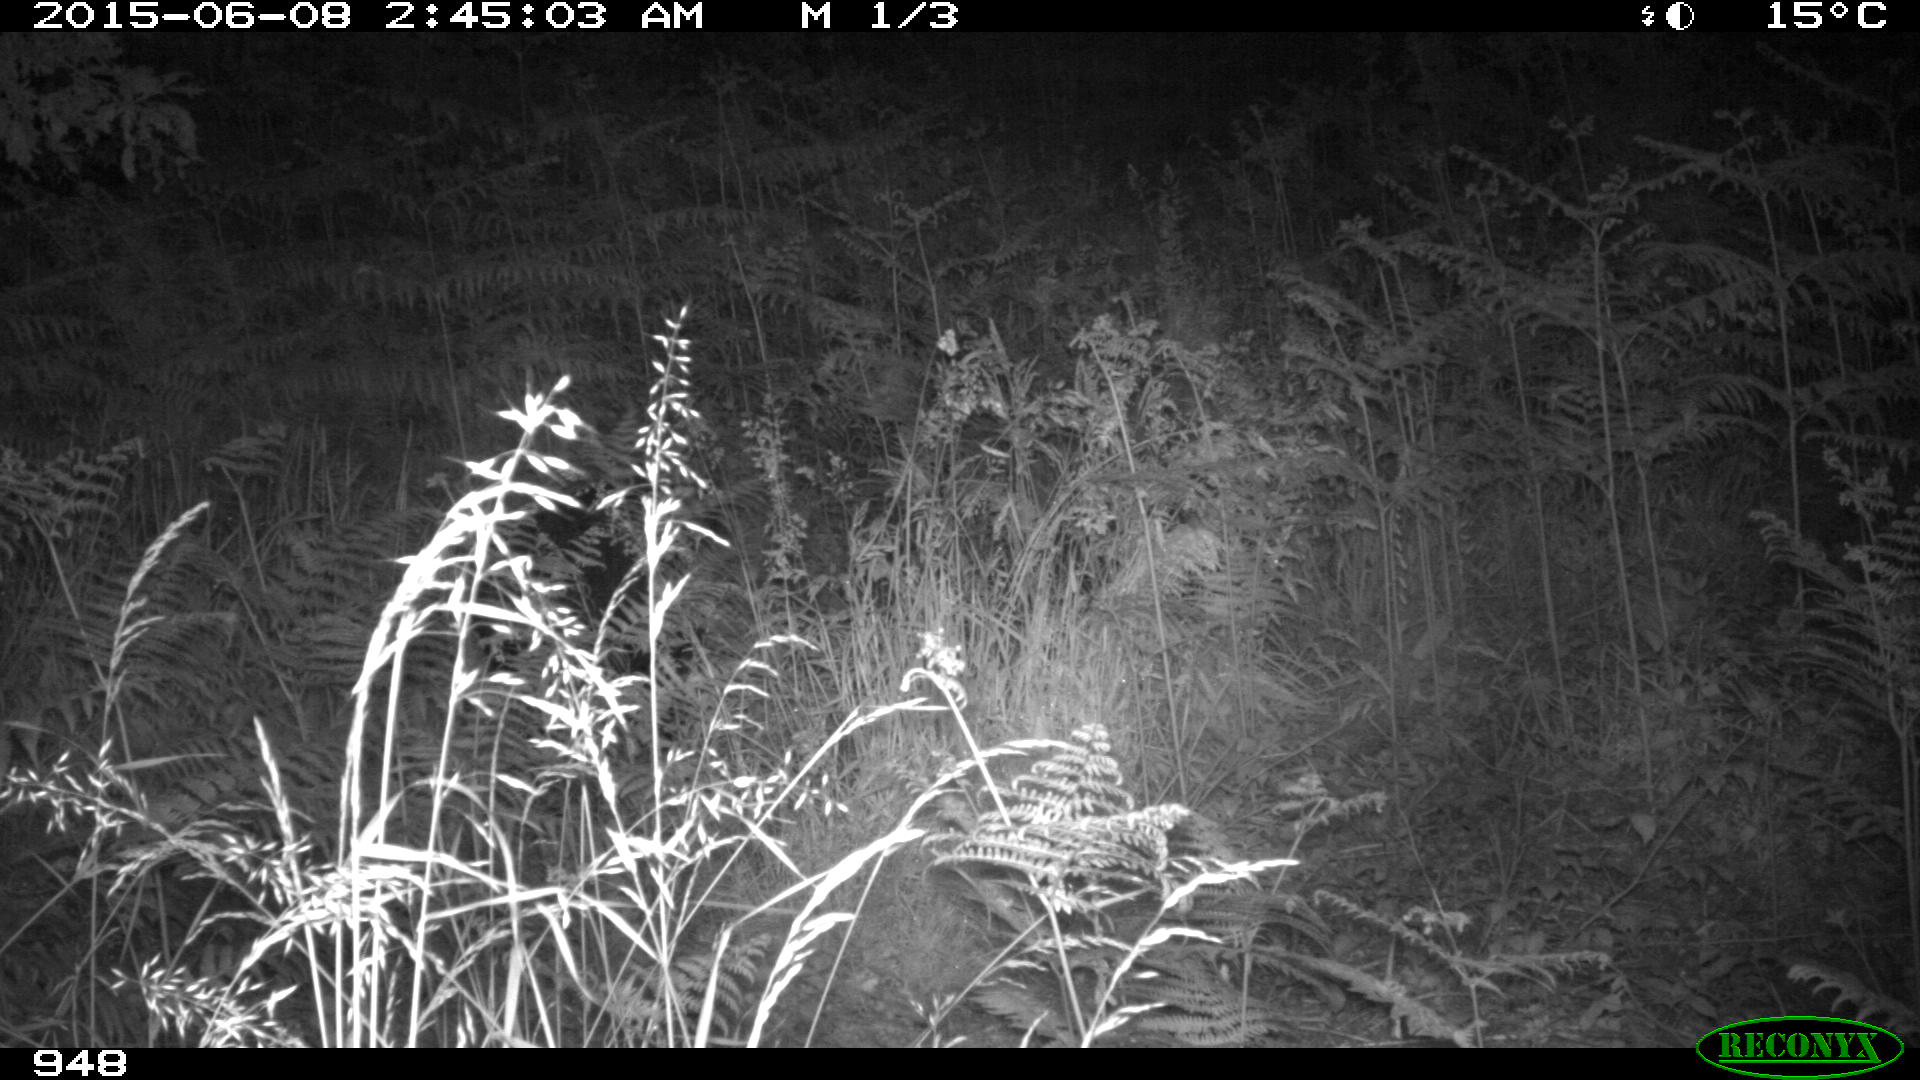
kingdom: Animalia
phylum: Chordata
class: Mammalia
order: Carnivora
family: Canidae
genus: Vulpes
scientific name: Vulpes vulpes
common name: Red fox
